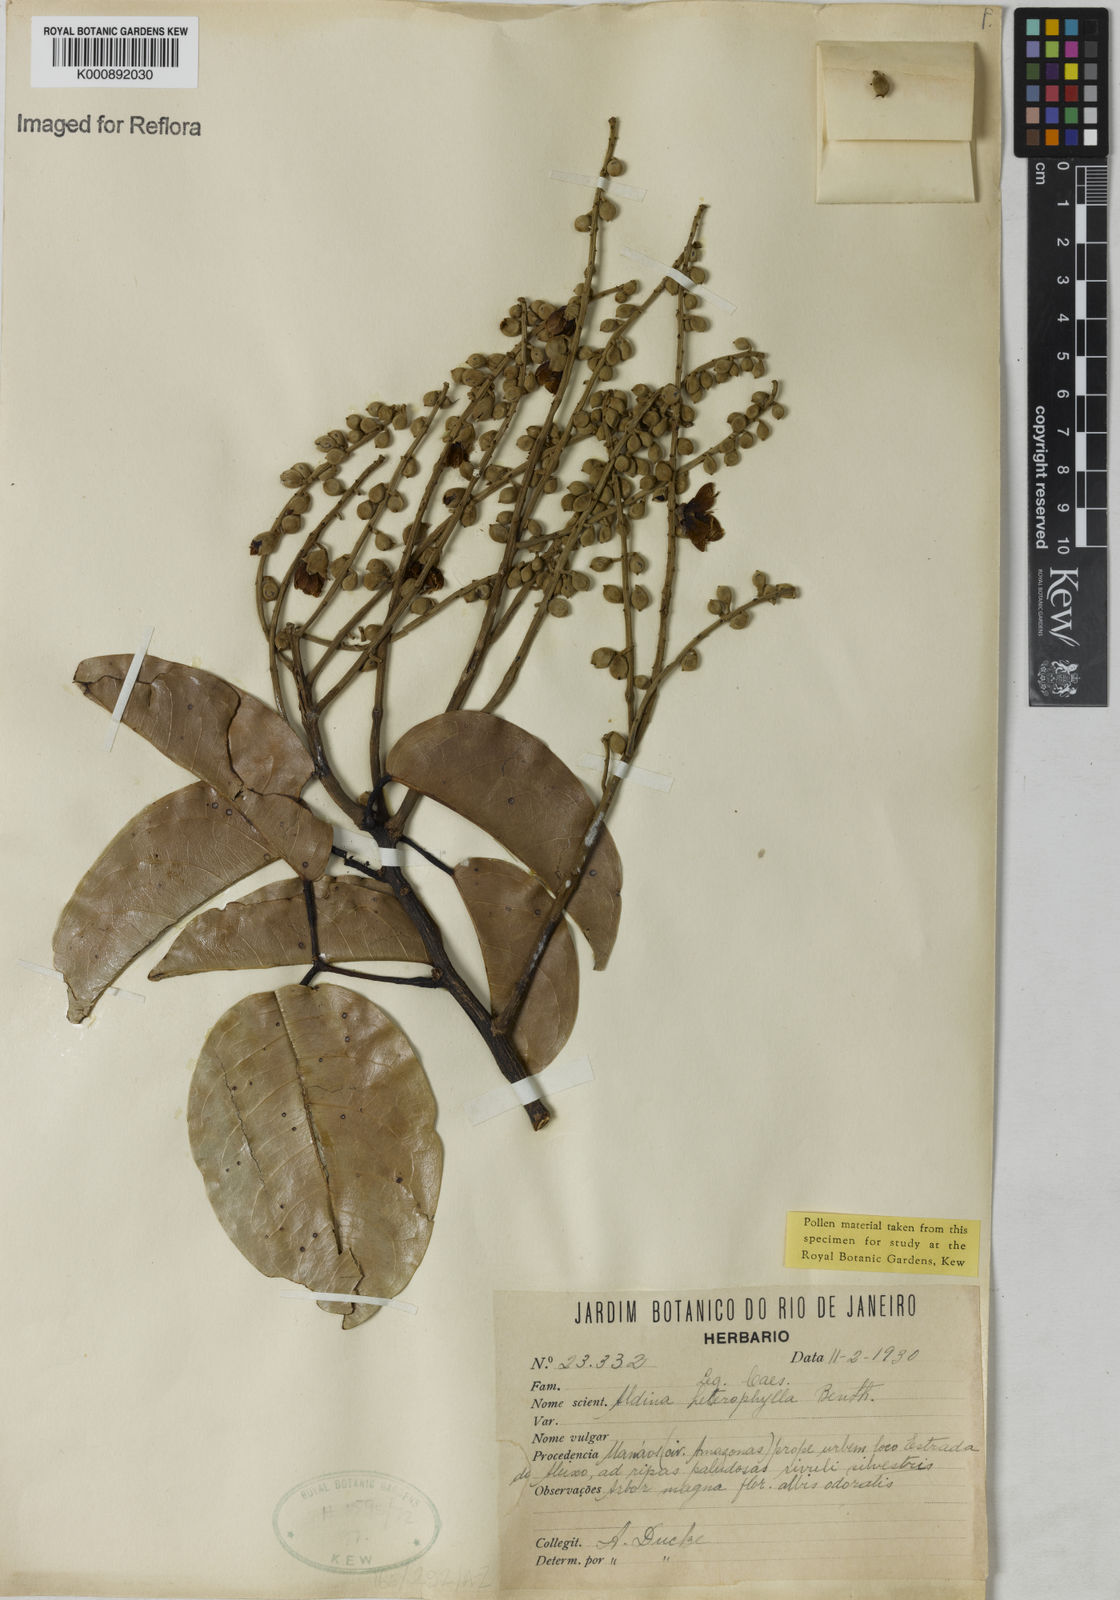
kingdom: Plantae
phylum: Tracheophyta
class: Magnoliopsida
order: Fabales
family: Fabaceae
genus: Aldina
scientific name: Aldina heterophylla
